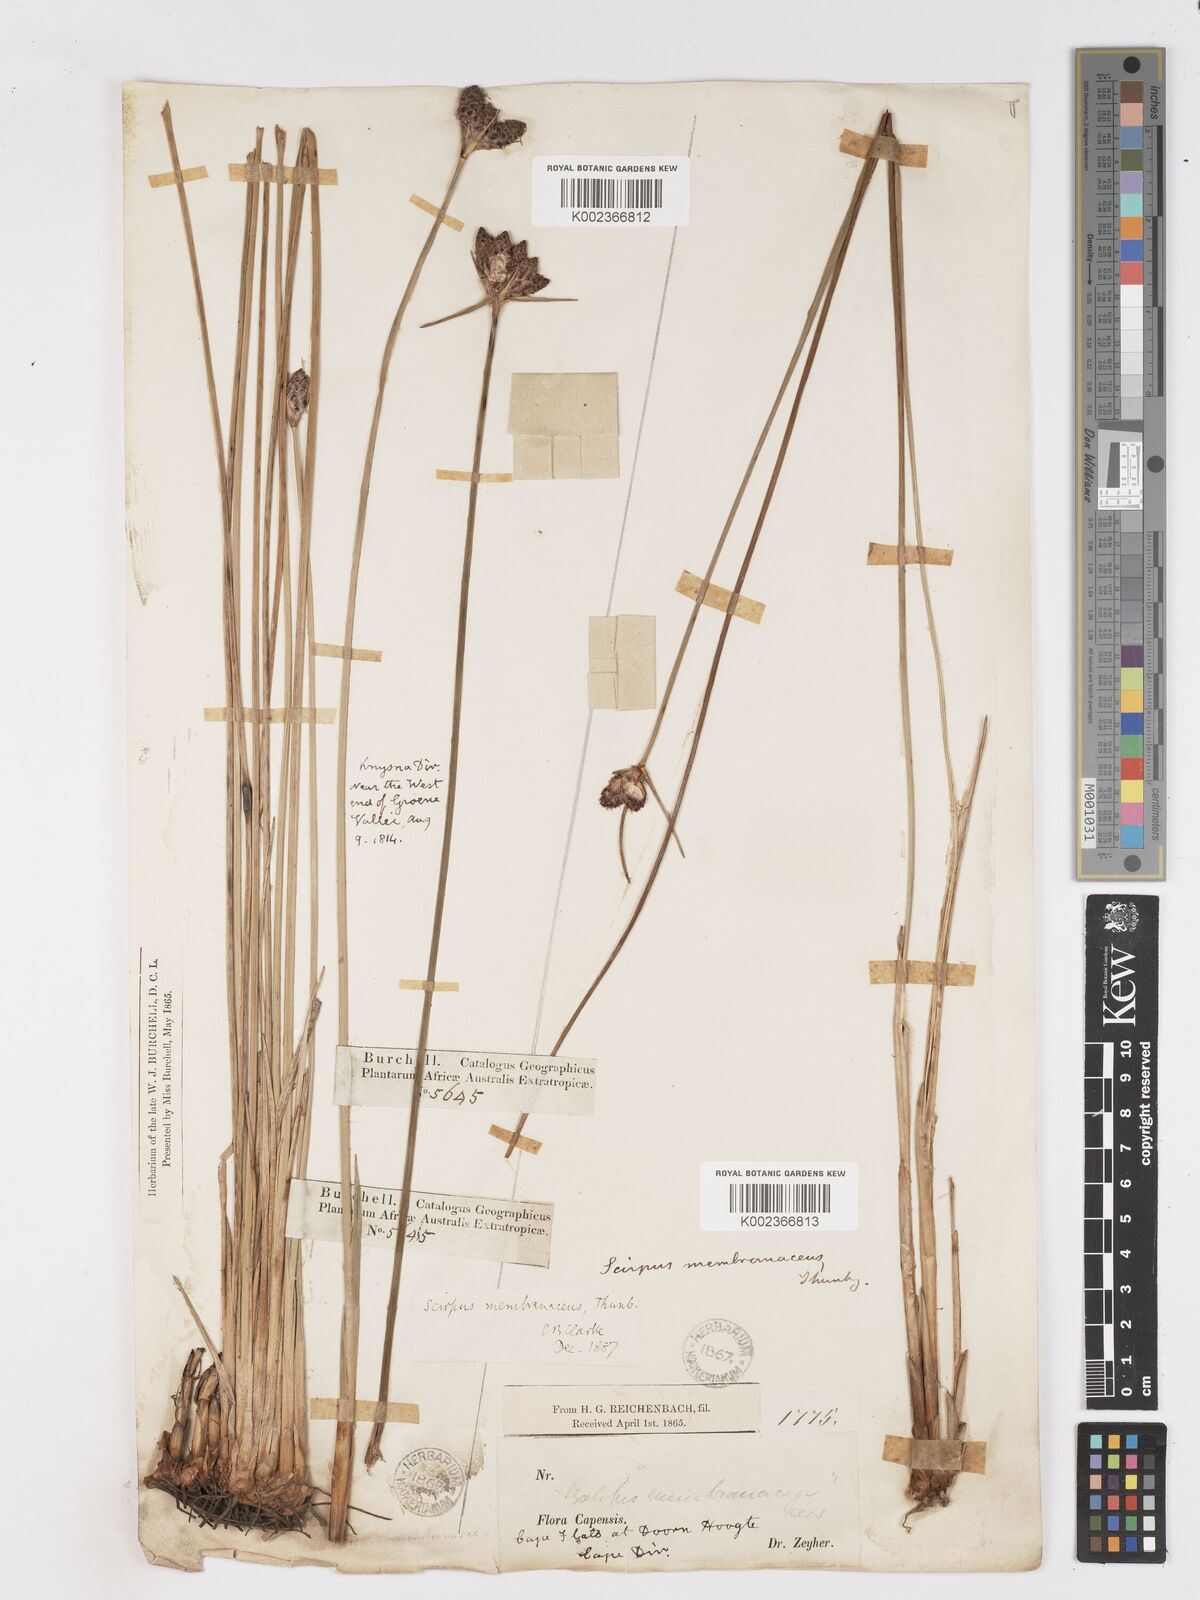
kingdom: Plantae
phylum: Tracheophyta
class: Liliopsida
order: Poales
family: Cyperaceae
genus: Hellmuthia
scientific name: Hellmuthia membranacea
